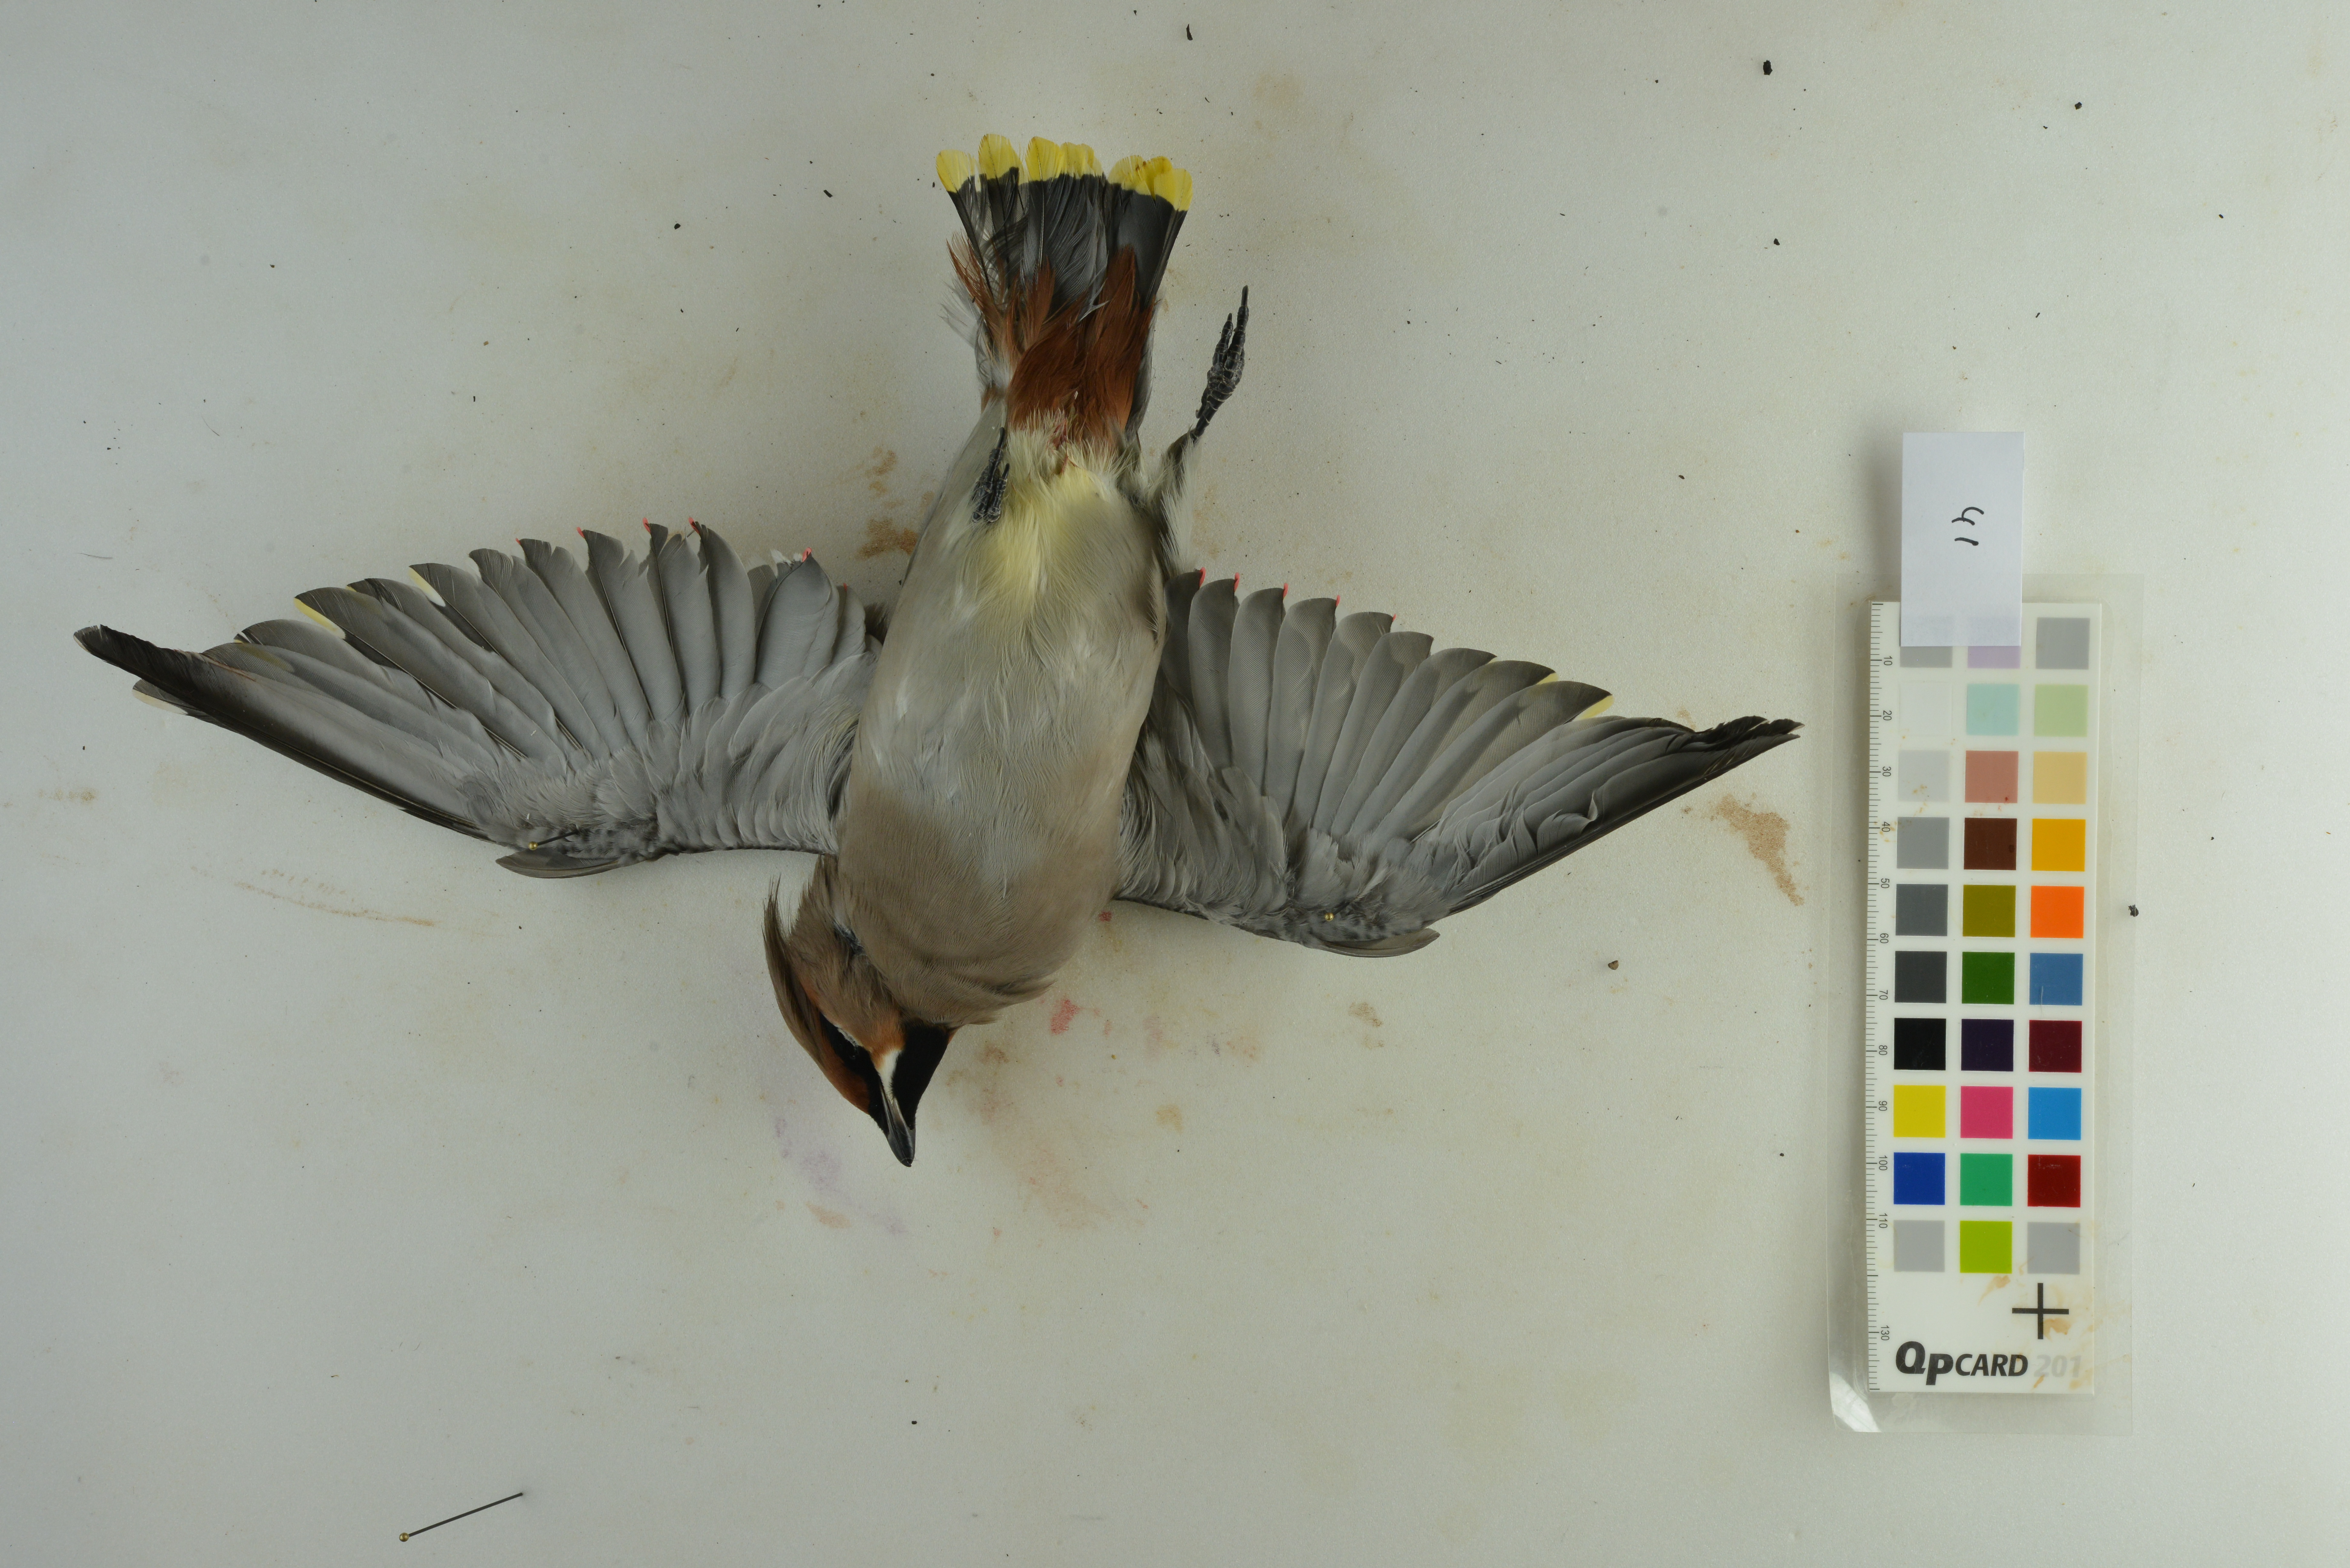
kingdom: Animalia
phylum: Chordata
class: Aves
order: Passeriformes
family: Bombycillidae
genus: Bombycilla
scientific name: Bombycilla garrulus
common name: Bohemian waxwing
